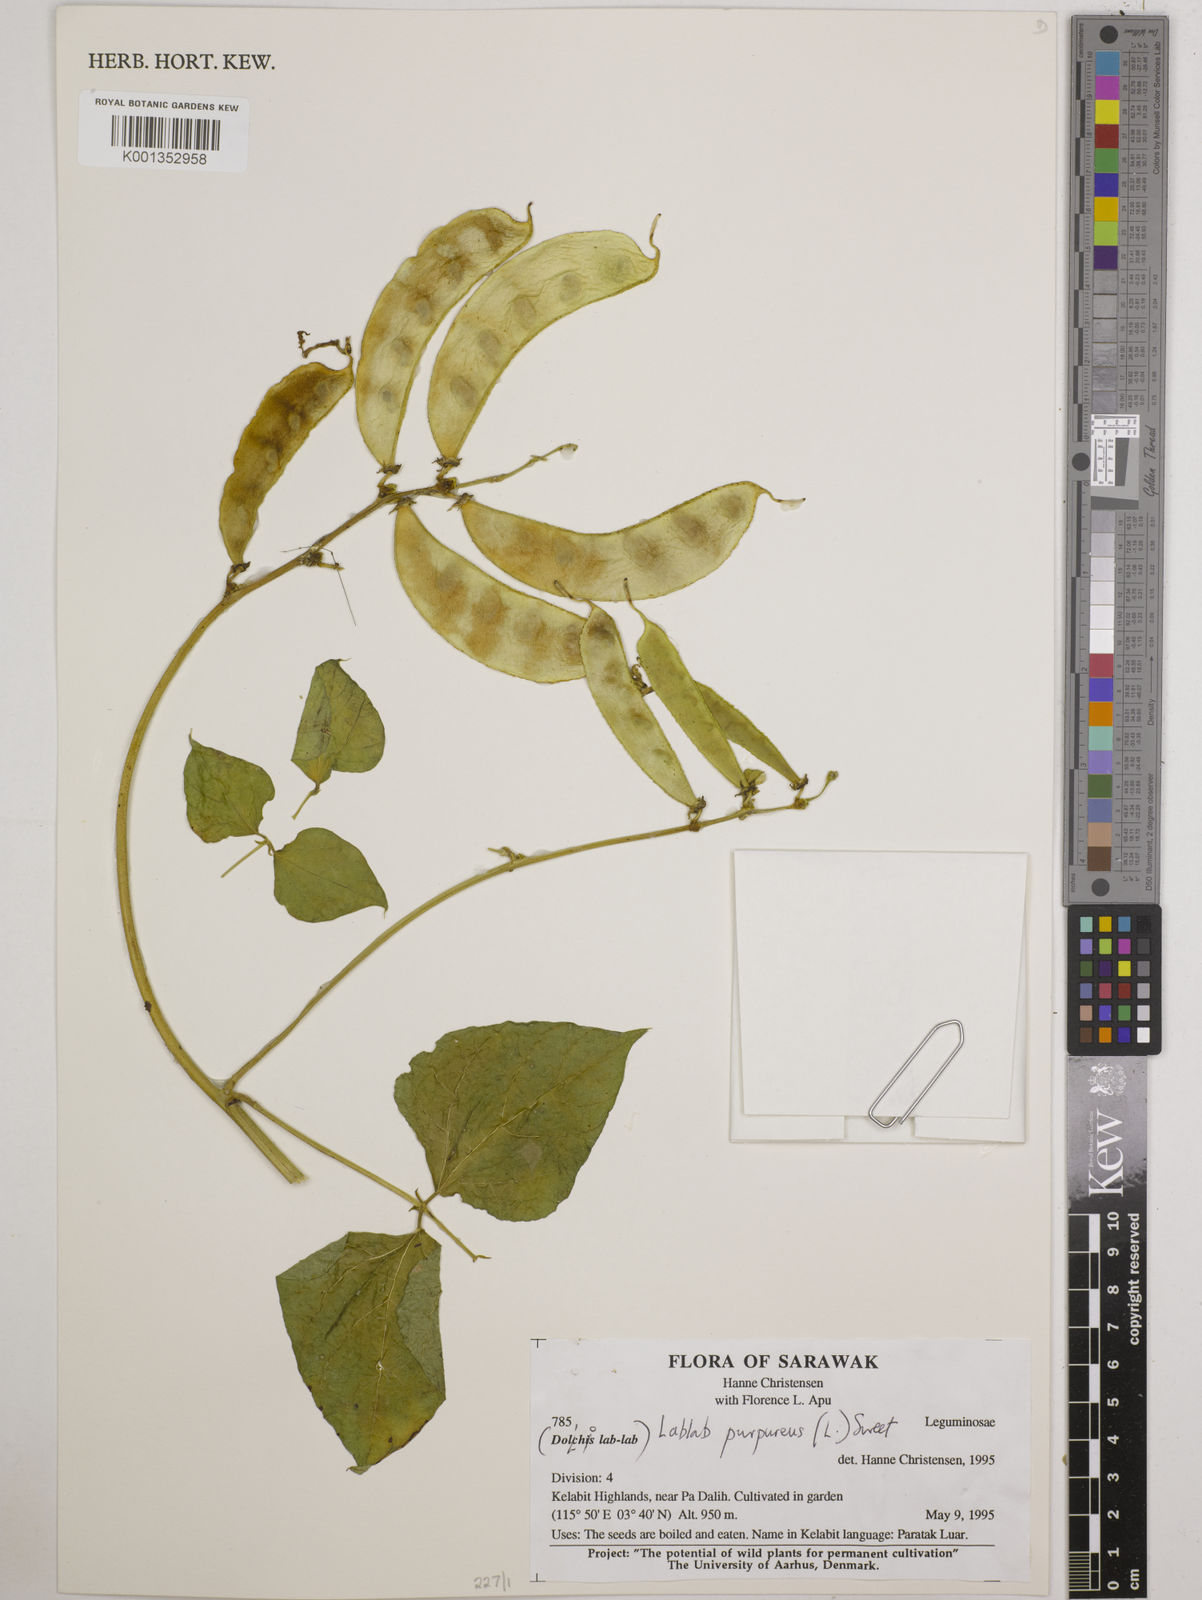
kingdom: Plantae
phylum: Tracheophyta
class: Magnoliopsida
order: Fabales
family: Fabaceae
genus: Lablab
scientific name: Lablab purpureus
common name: Lablab-bean
